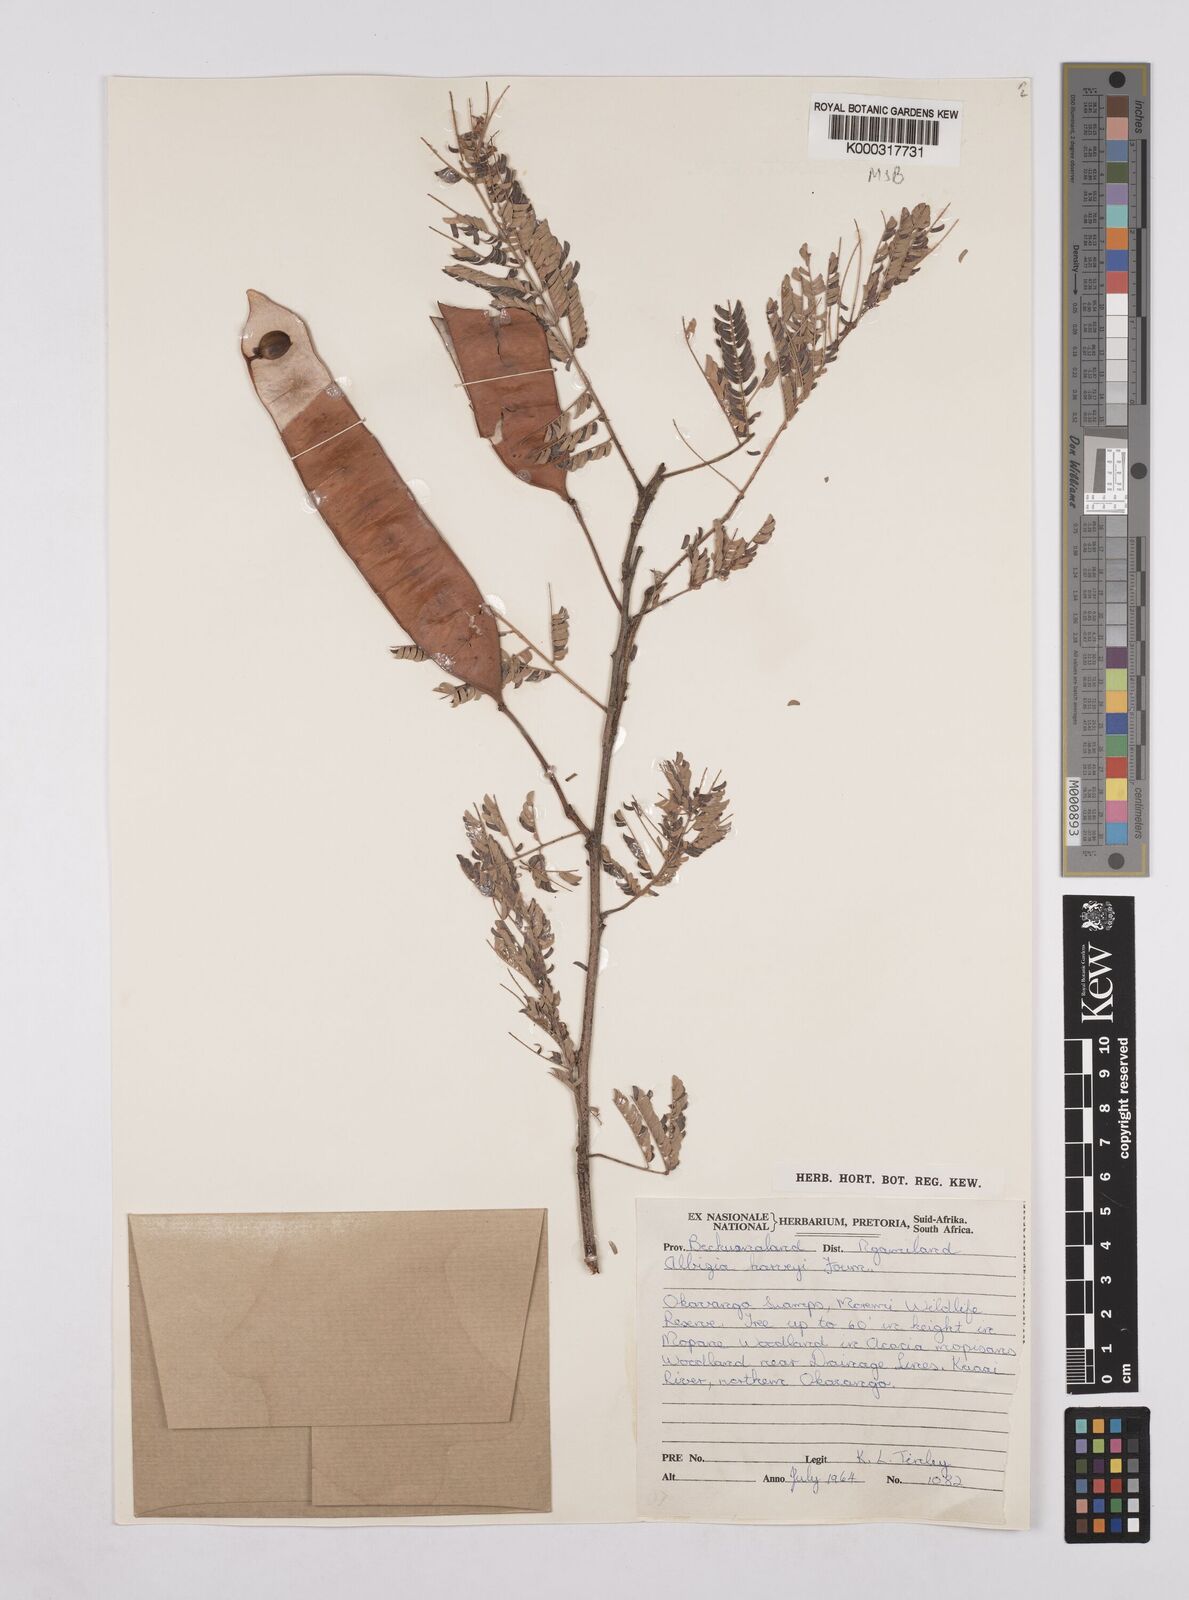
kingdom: Plantae
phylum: Tracheophyta
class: Magnoliopsida
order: Fabales
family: Fabaceae
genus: Albizia
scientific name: Albizia harveyi
